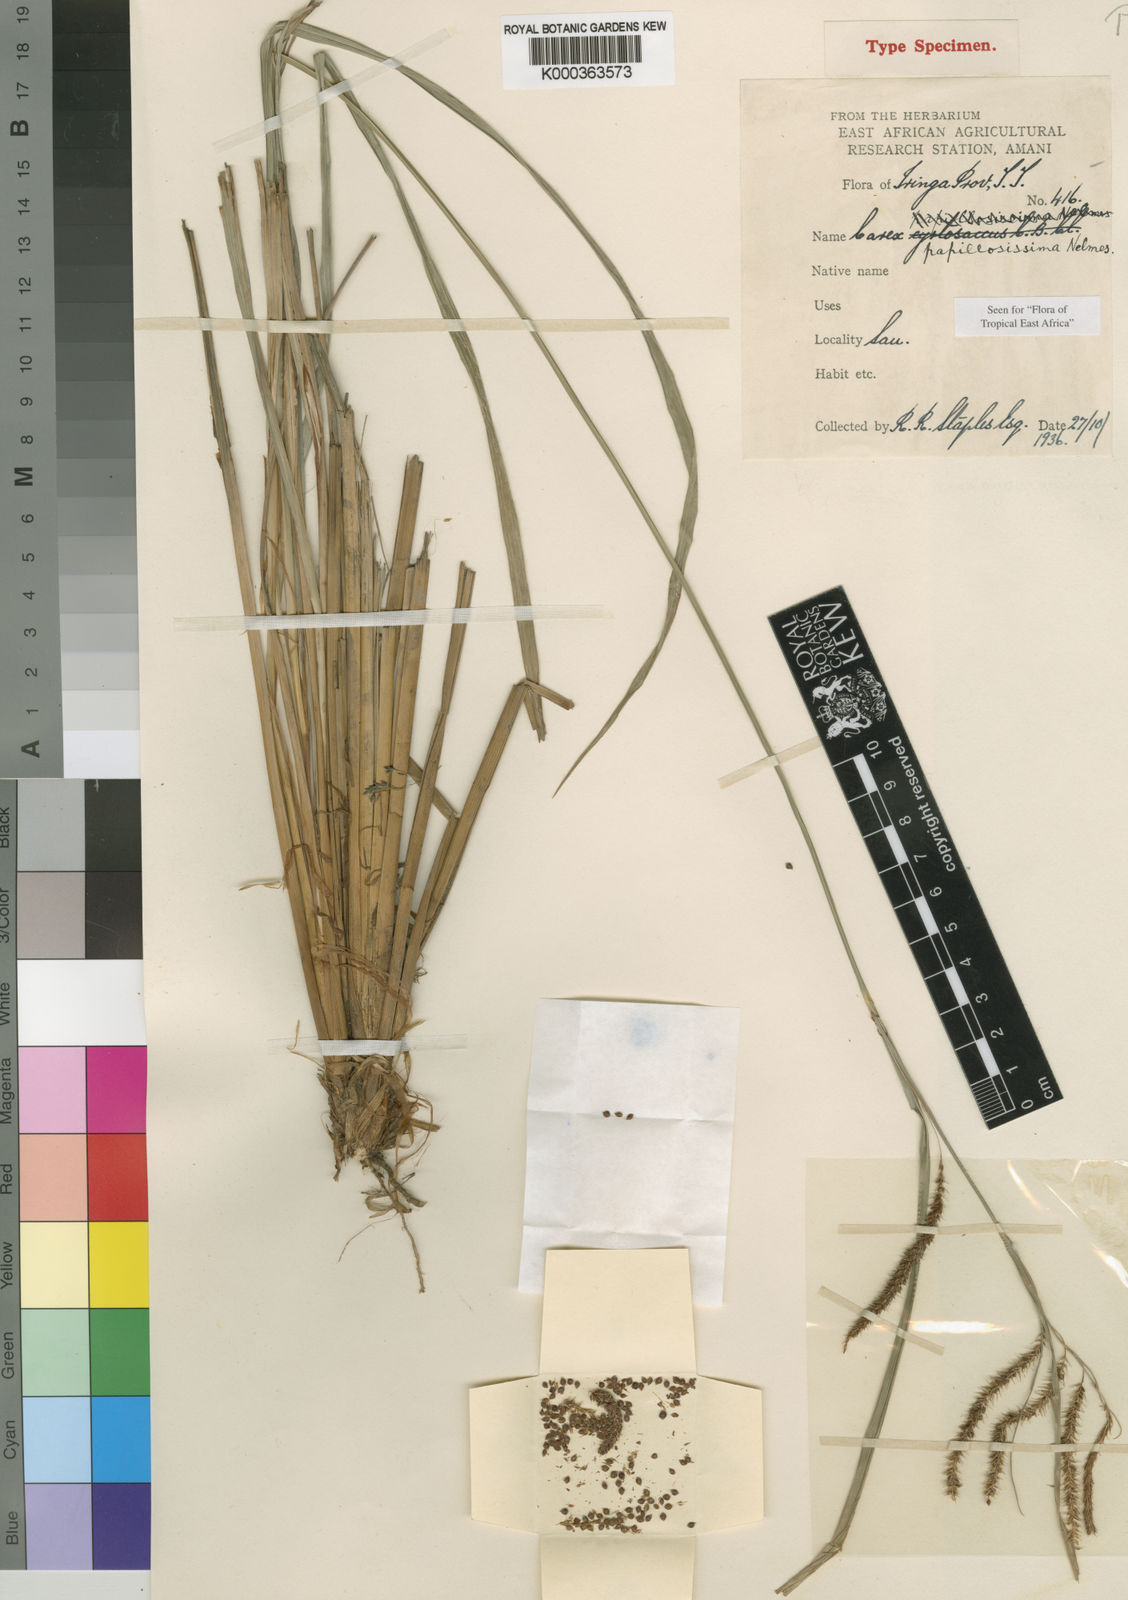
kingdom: Plantae
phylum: Tracheophyta
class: Liliopsida
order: Poales
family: Cyperaceae
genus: Carex
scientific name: Carex papillosissima
